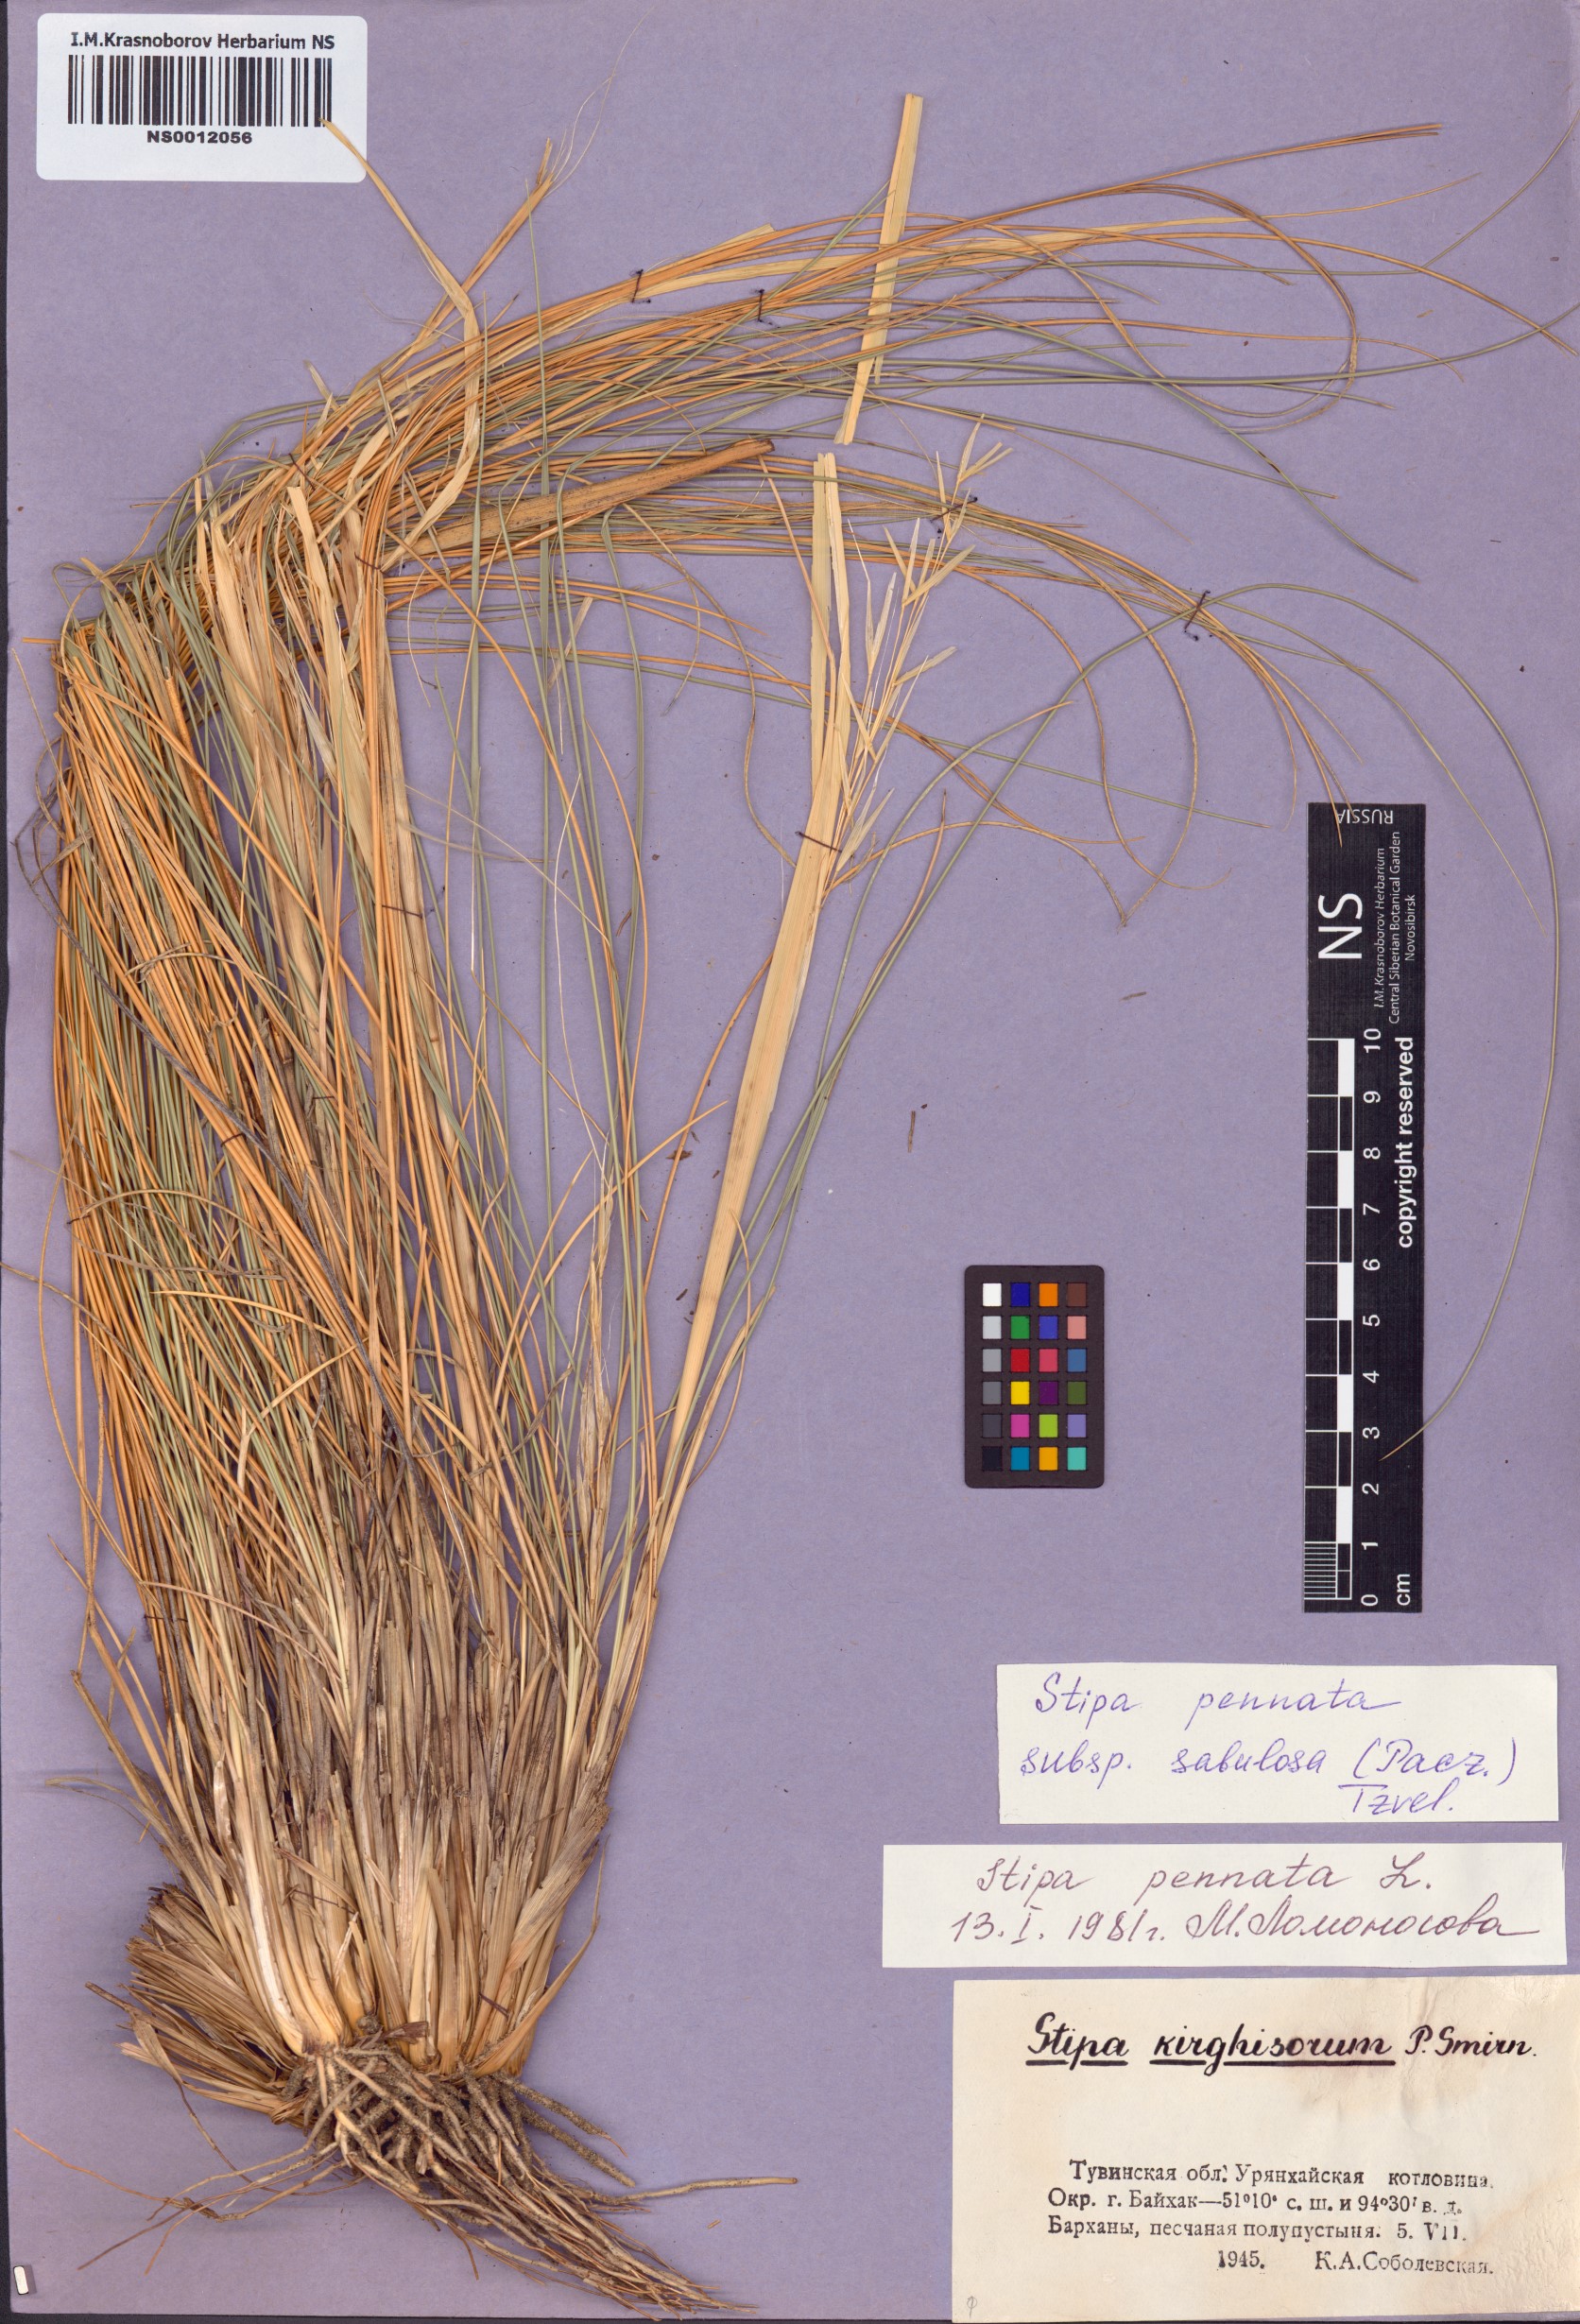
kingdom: Plantae
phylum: Tracheophyta
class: Liliopsida
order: Poales
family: Poaceae
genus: Stipa
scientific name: Stipa borysthenica
